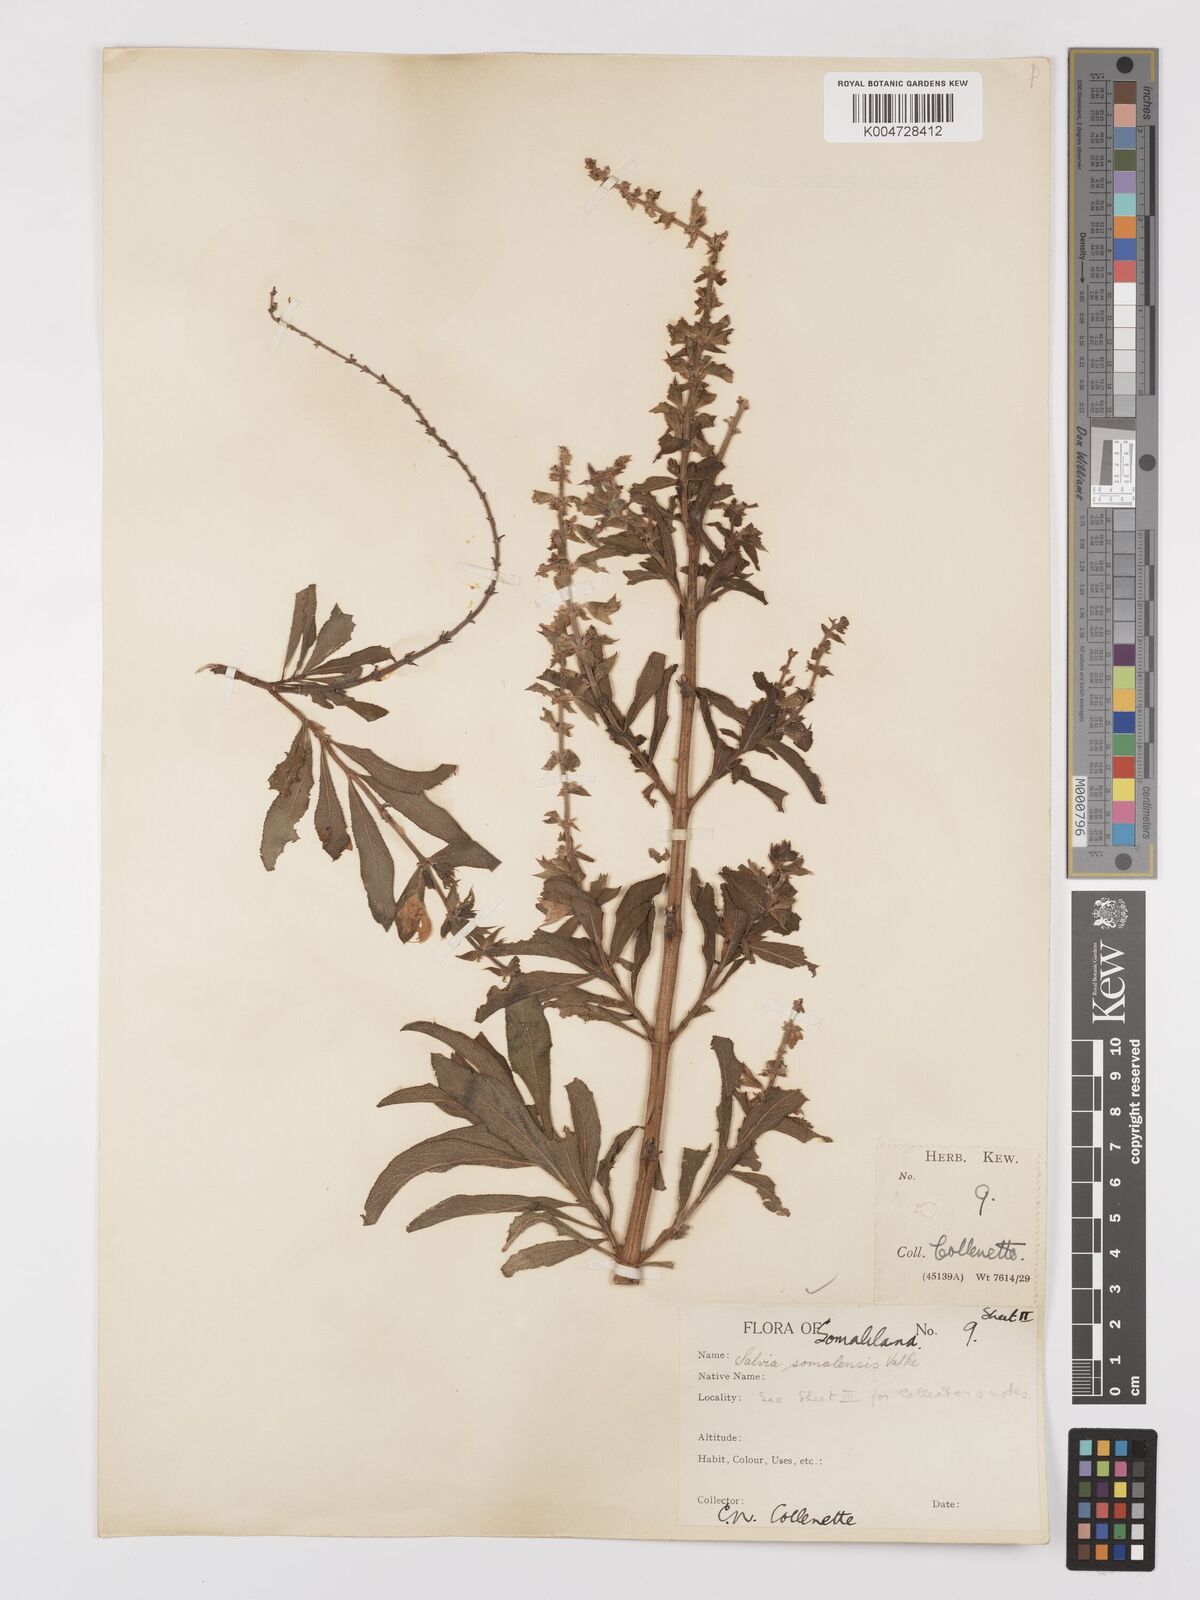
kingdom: Plantae
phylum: Tracheophyta
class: Magnoliopsida
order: Lamiales
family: Lamiaceae
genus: Salvia
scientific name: Salvia somalensis
